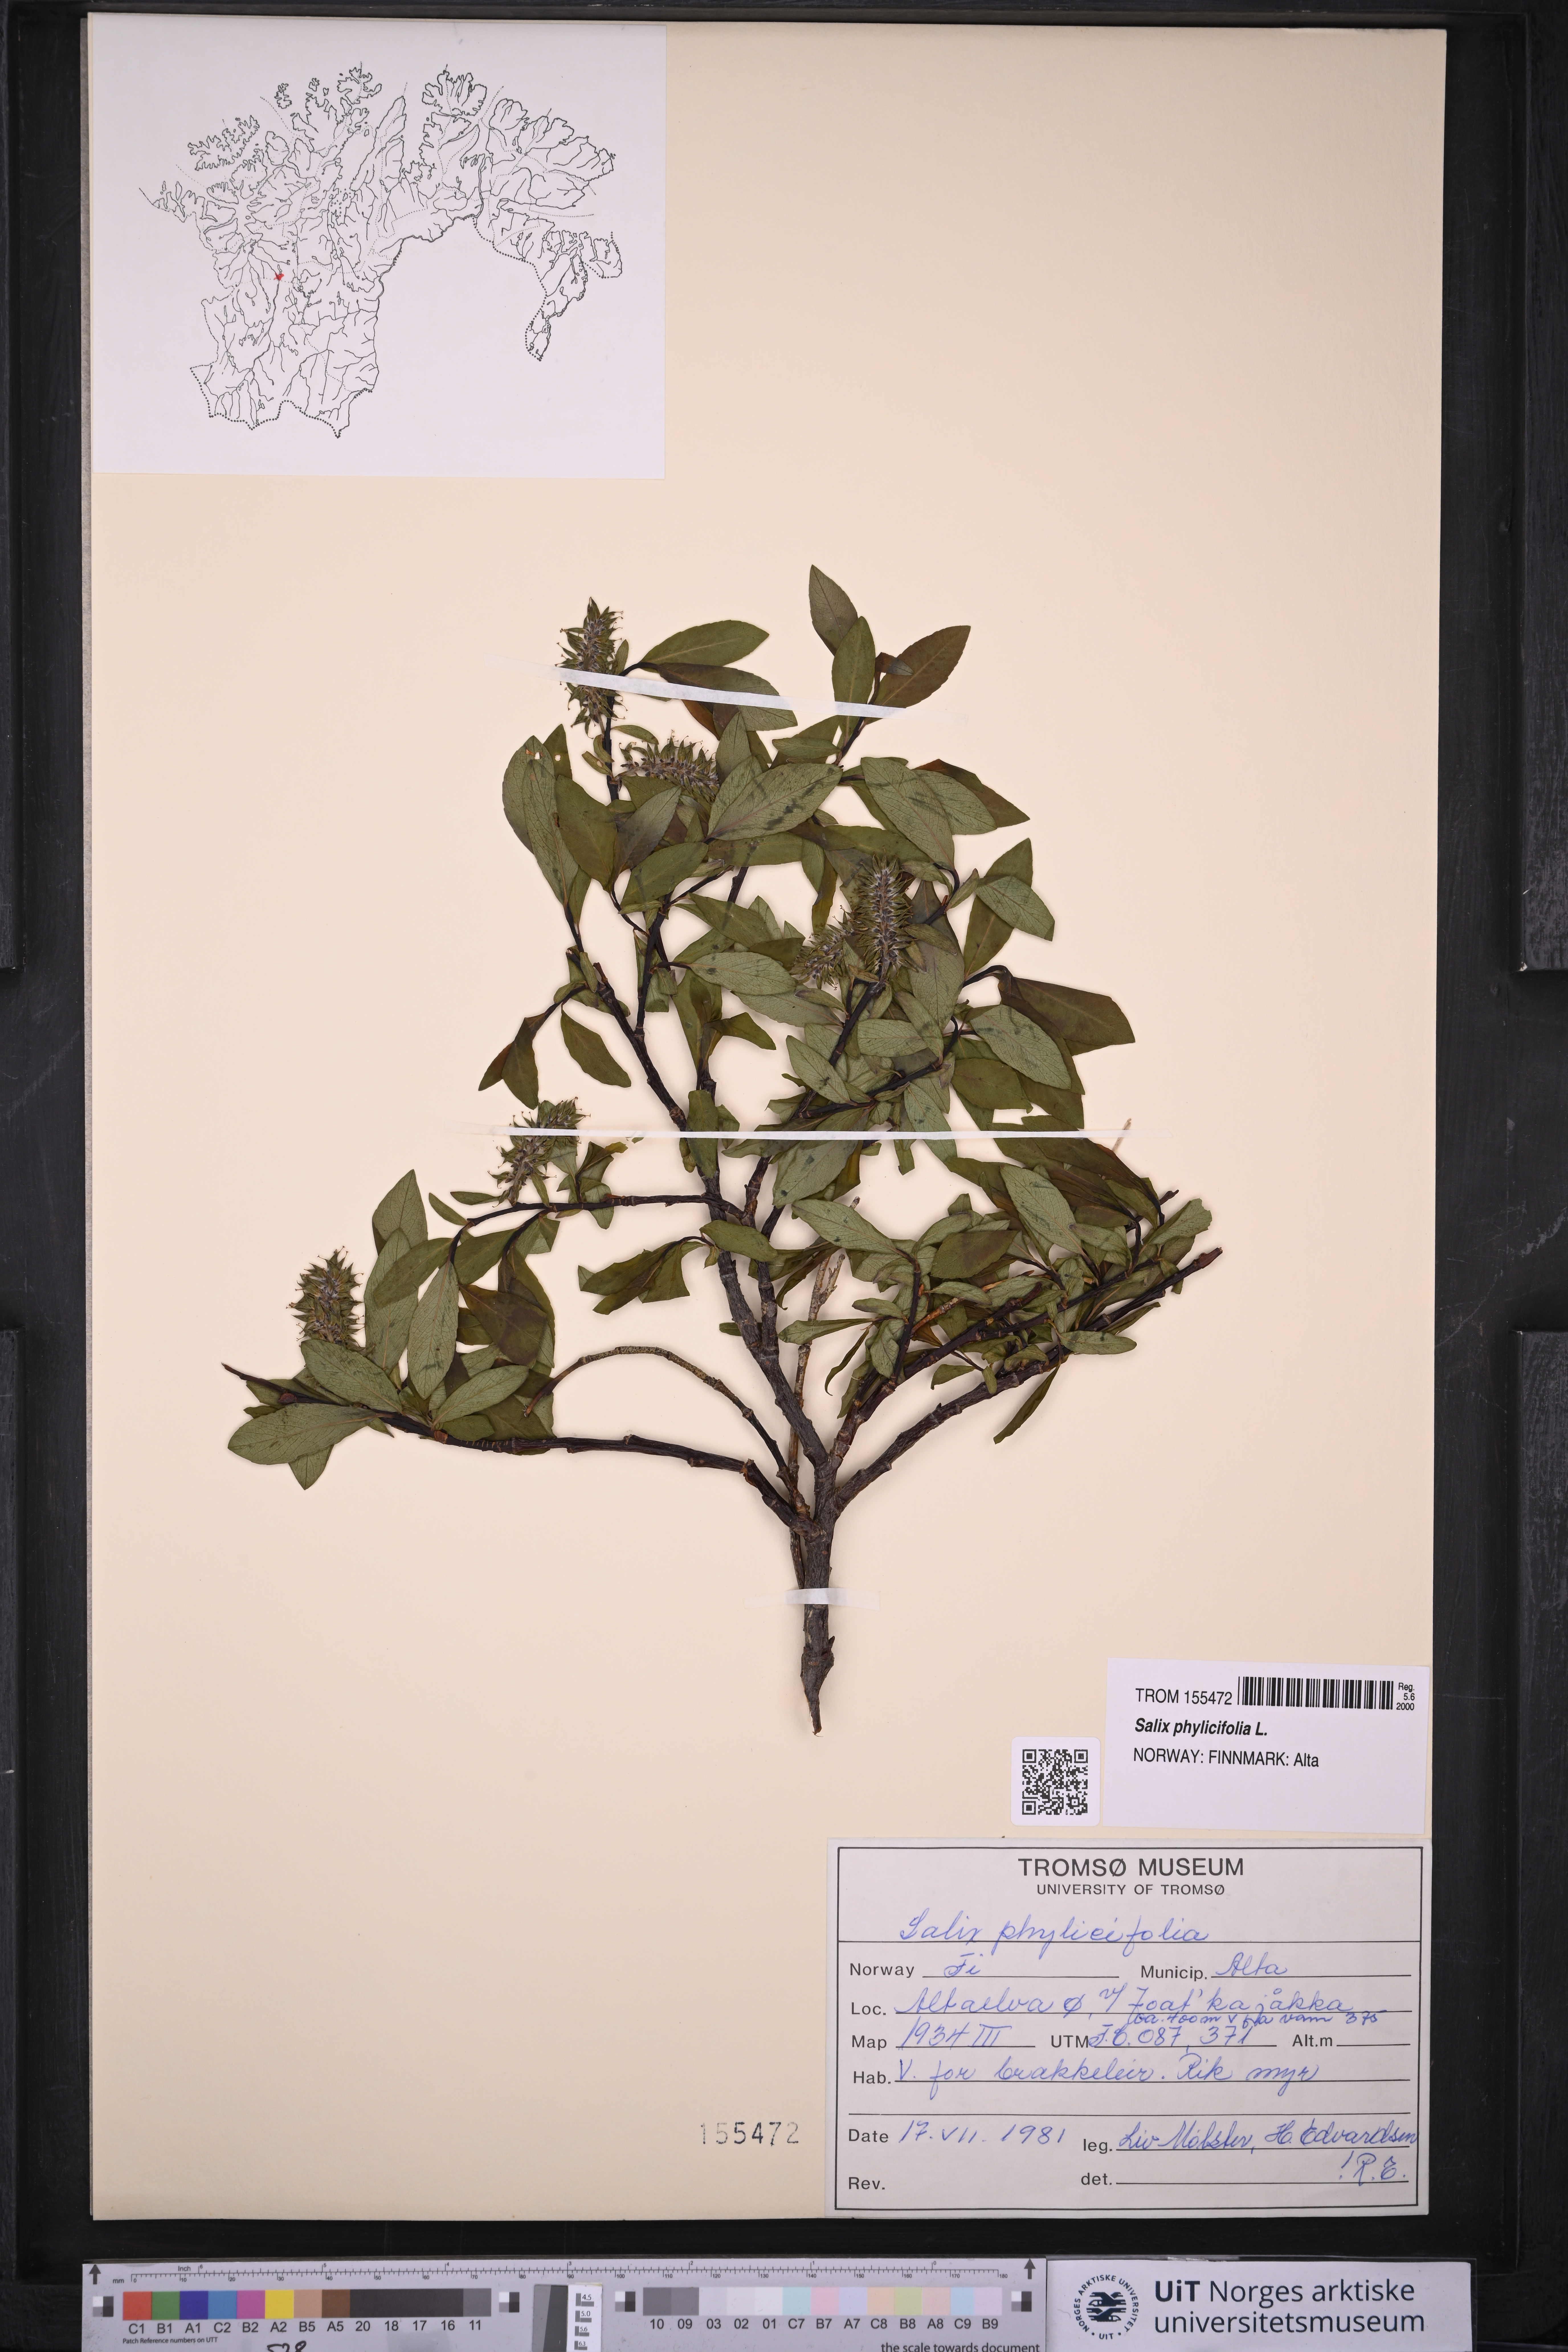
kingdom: Plantae
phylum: Tracheophyta
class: Magnoliopsida
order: Malpighiales
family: Salicaceae
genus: Salix
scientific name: Salix phylicifolia
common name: Tea-leaved willow
